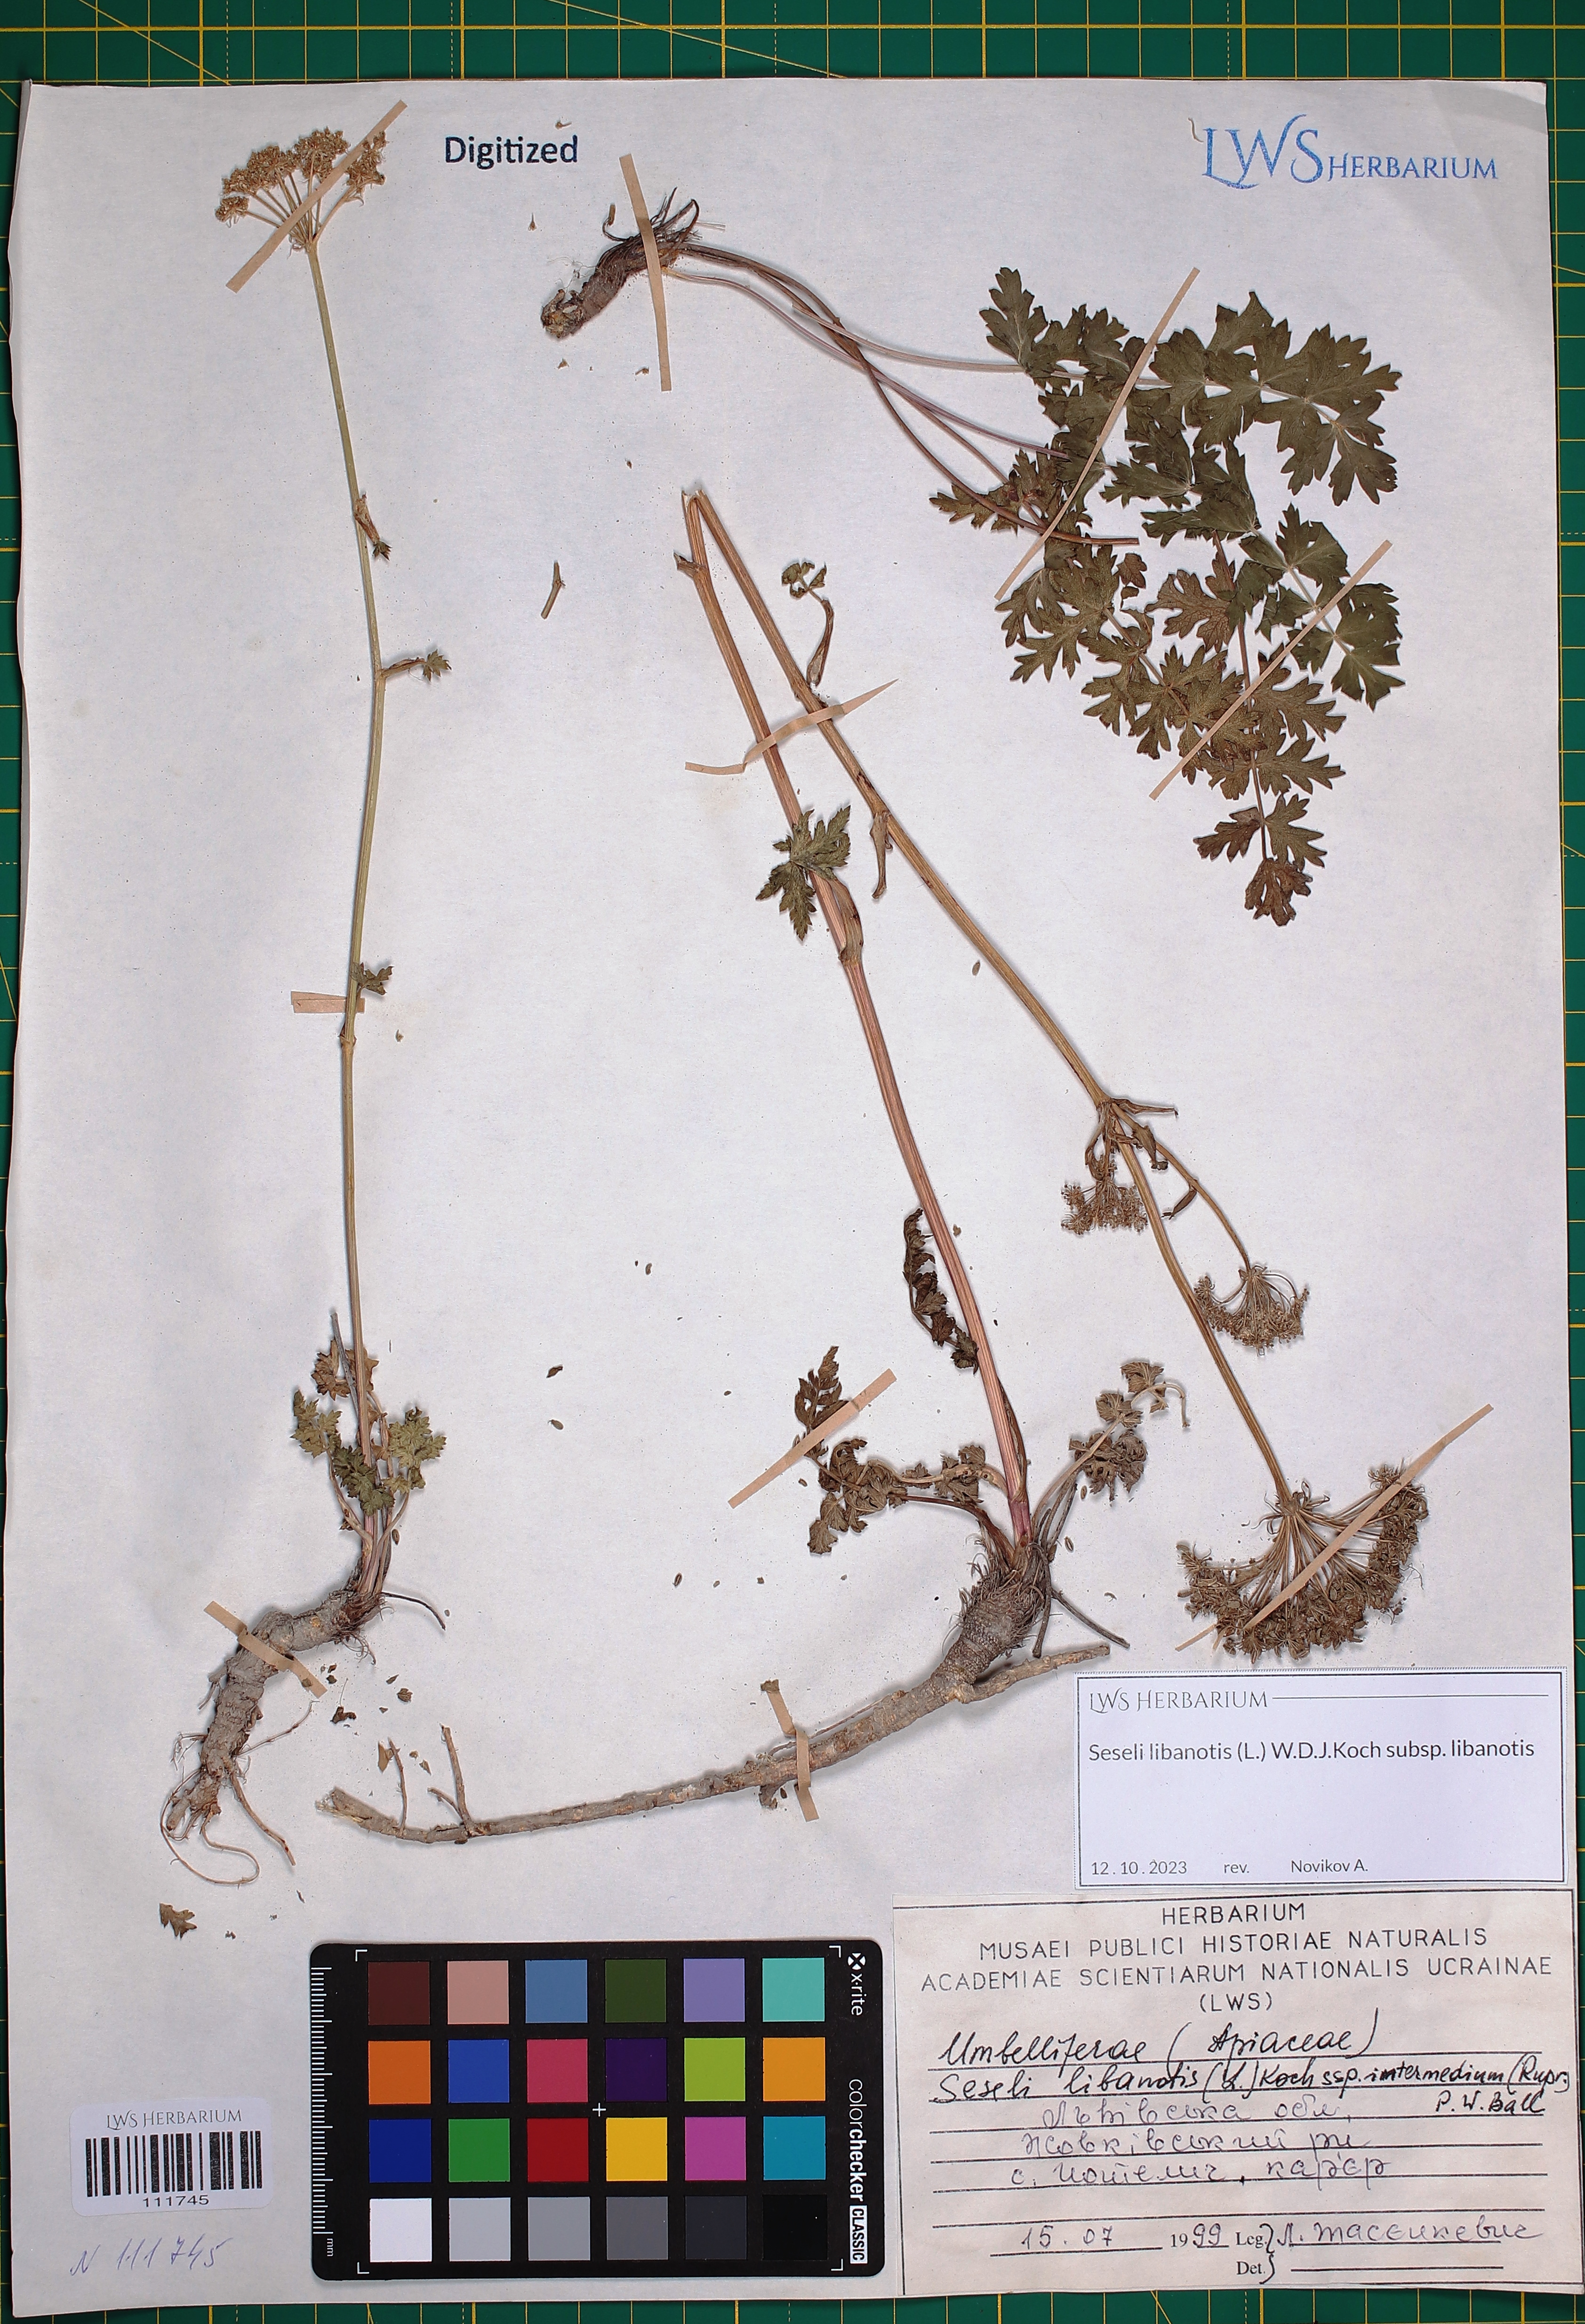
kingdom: Plantae
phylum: Tracheophyta
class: Magnoliopsida
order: Apiales
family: Apiaceae
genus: Seseli
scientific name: Seseli libanotis
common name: Mooncarrot
